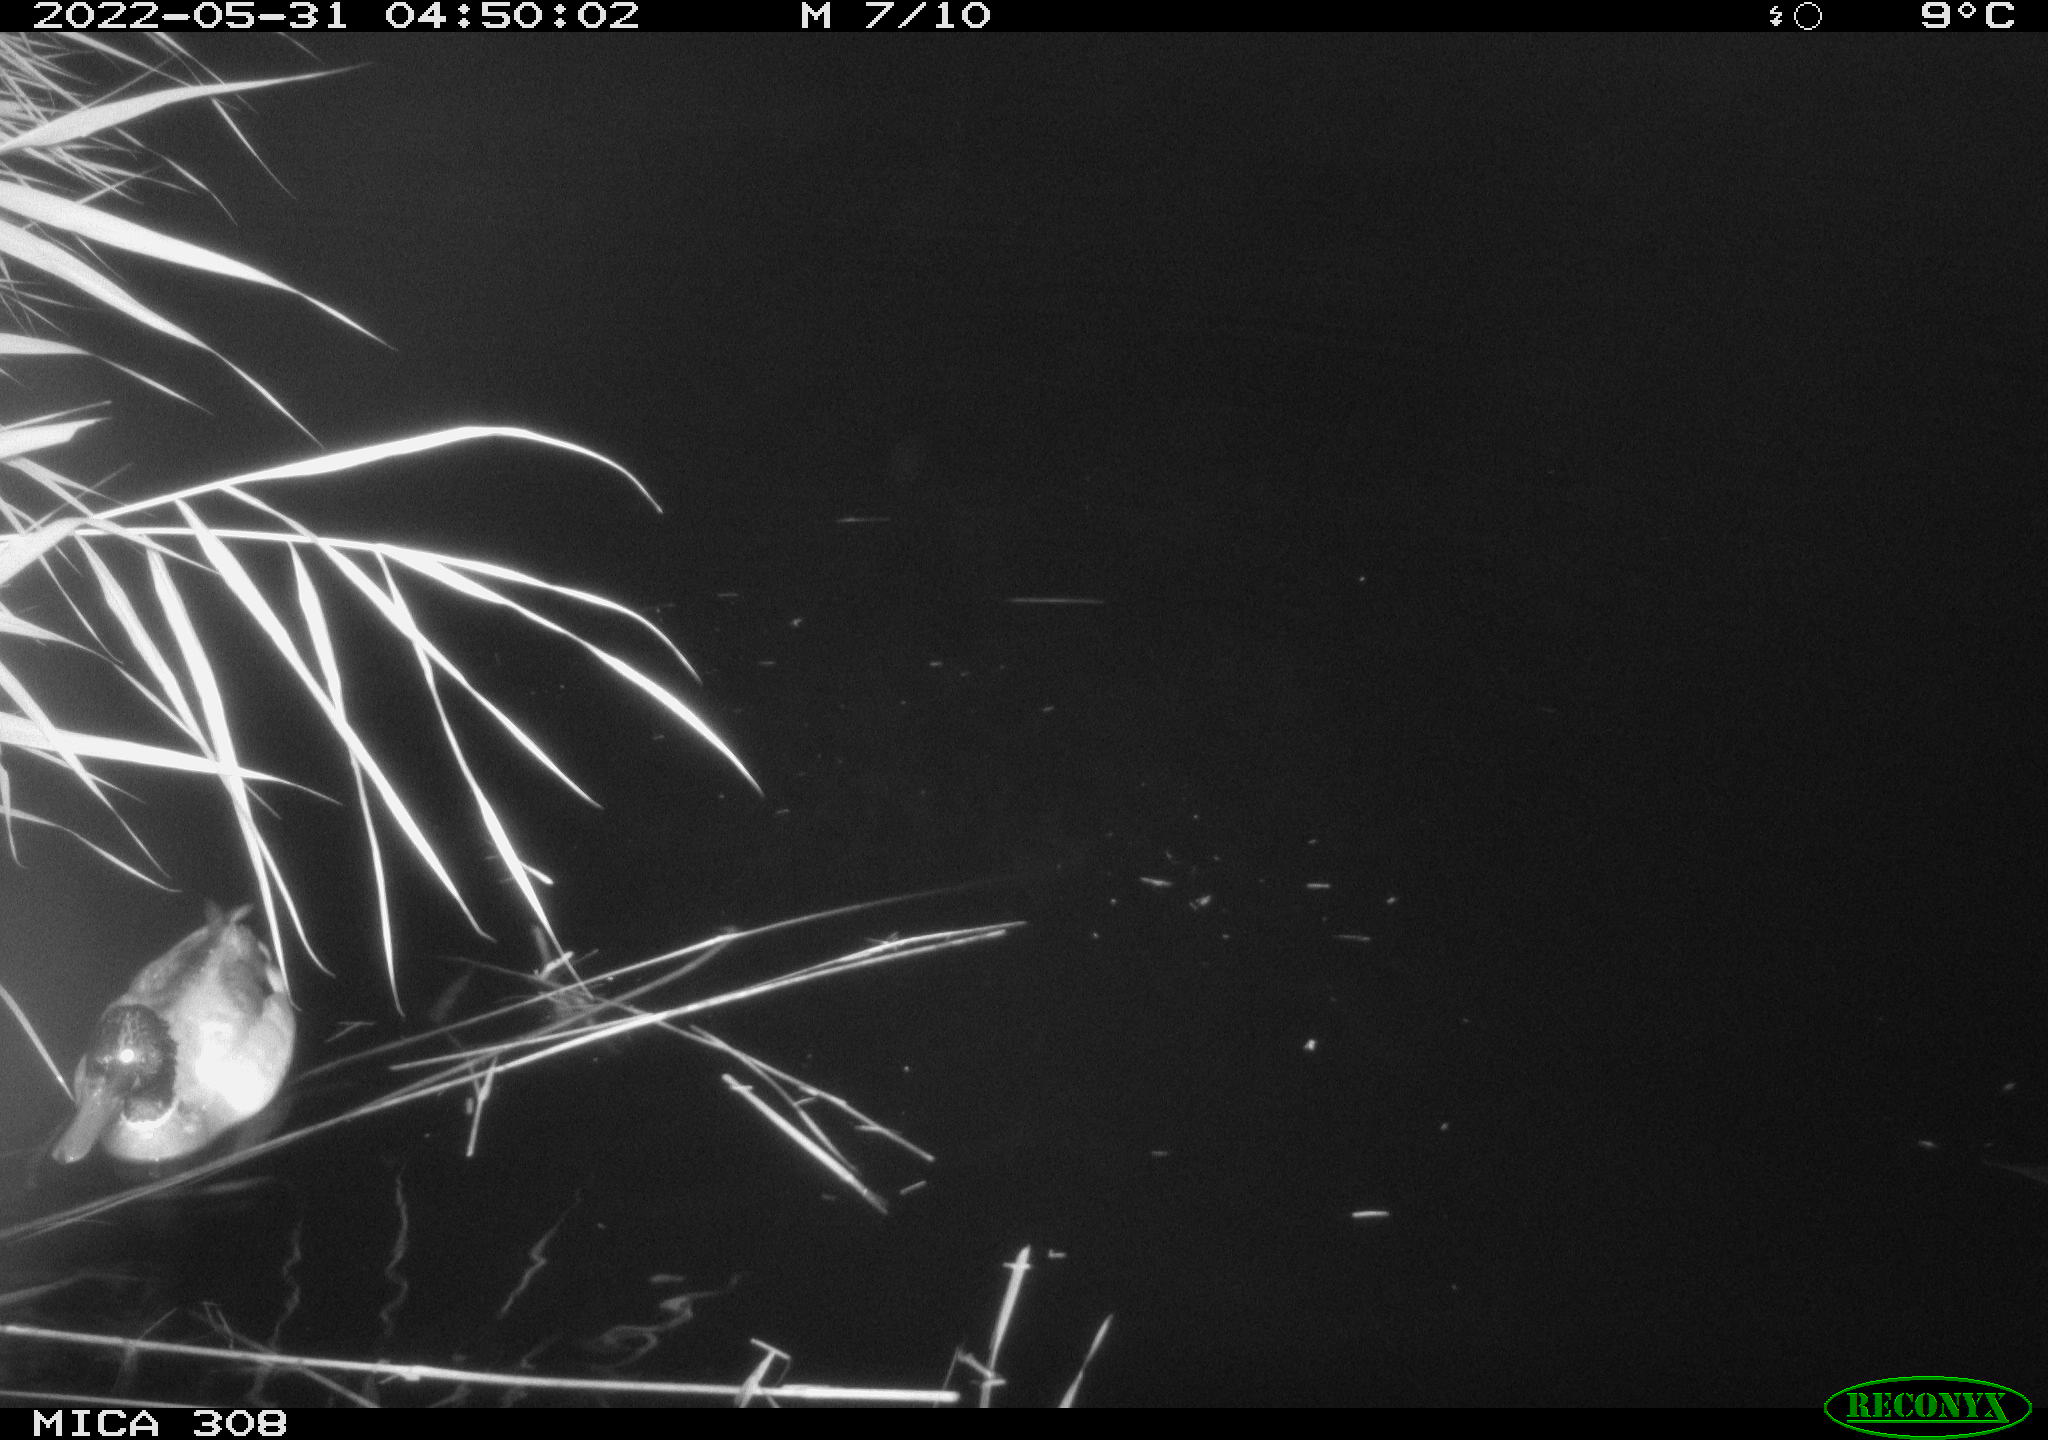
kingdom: Animalia
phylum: Chordata
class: Aves
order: Anseriformes
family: Anatidae
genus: Anas
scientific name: Anas platyrhynchos
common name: Mallard
